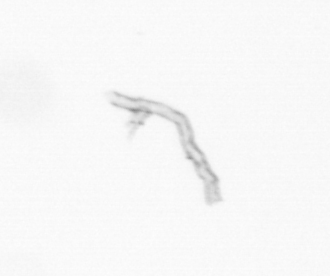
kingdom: Chromista
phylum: Ochrophyta
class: Bacillariophyceae
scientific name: Bacillariophyceae
